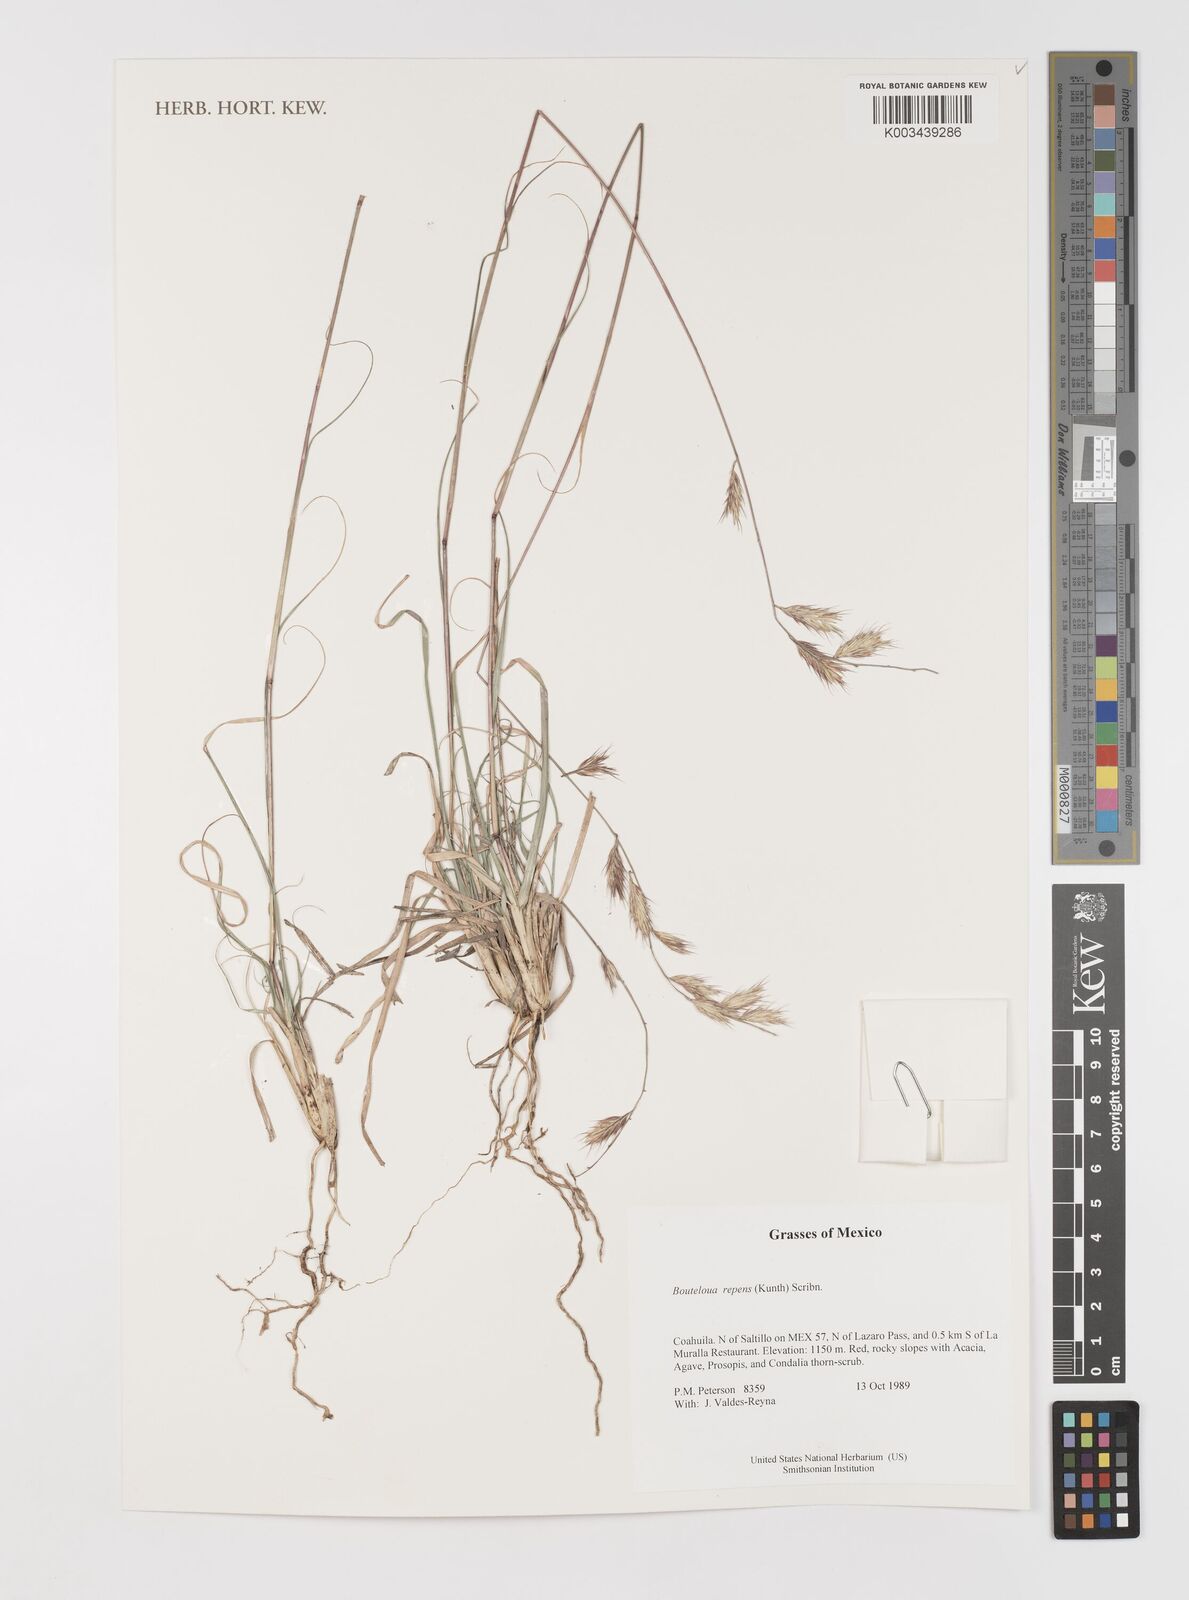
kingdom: Plantae
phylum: Tracheophyta
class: Liliopsida
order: Poales
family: Poaceae
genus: Bouteloua
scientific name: Bouteloua repens
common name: Slender grama
